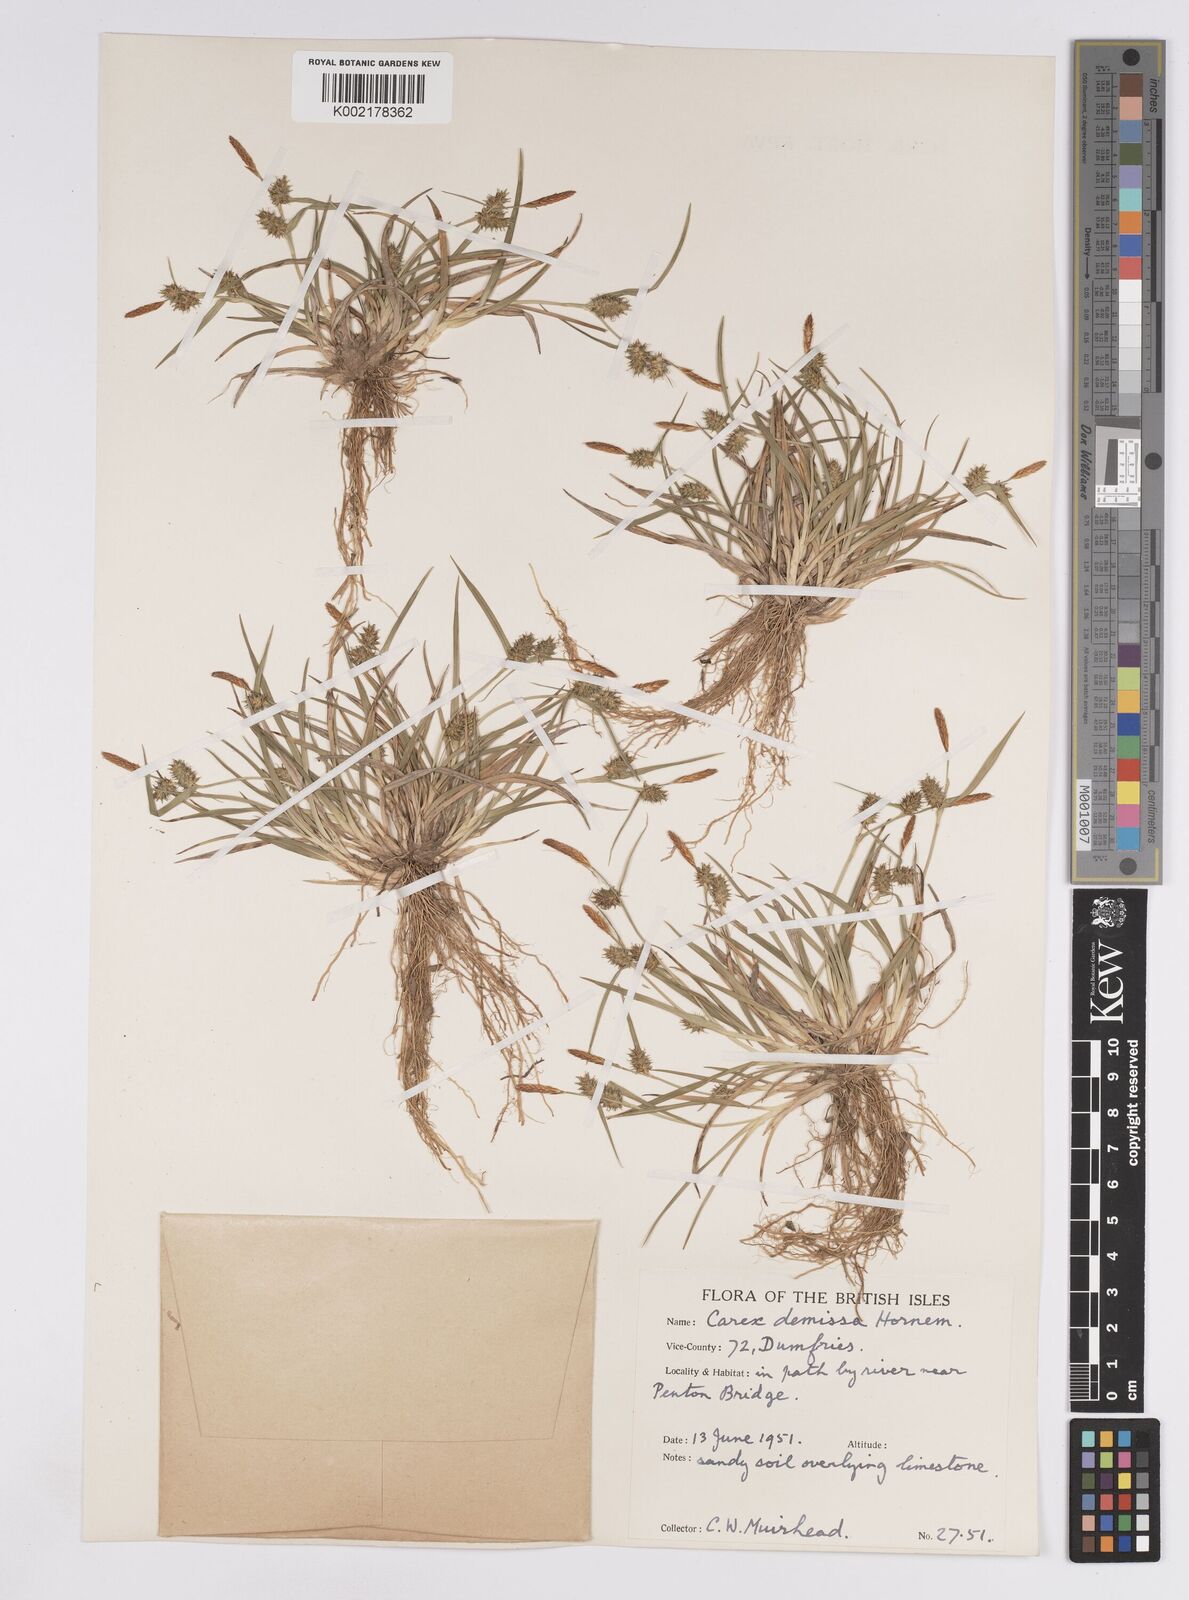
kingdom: Plantae
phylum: Tracheophyta
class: Liliopsida
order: Poales
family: Cyperaceae
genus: Carex
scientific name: Carex demissa
